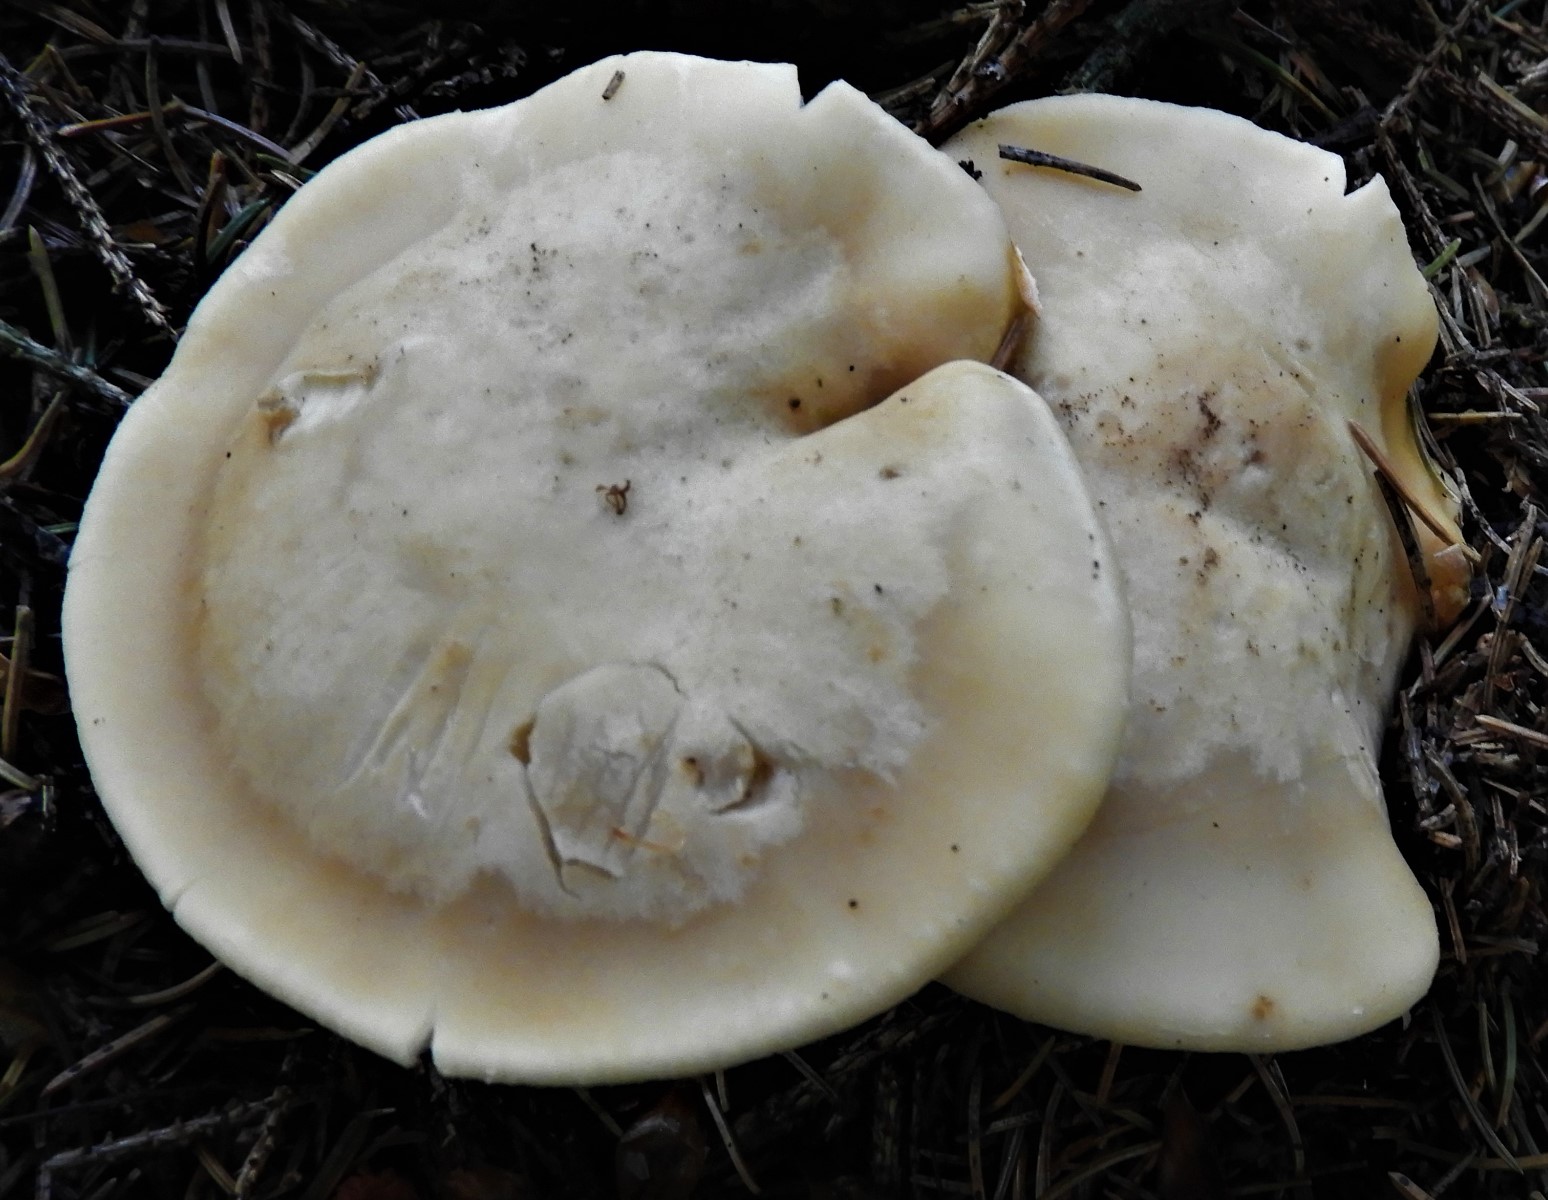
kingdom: Fungi
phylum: Basidiomycota
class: Agaricomycetes
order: Agaricales
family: Lyophyllaceae
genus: Calocybe
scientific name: Calocybe gambosa
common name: vårmusseron
